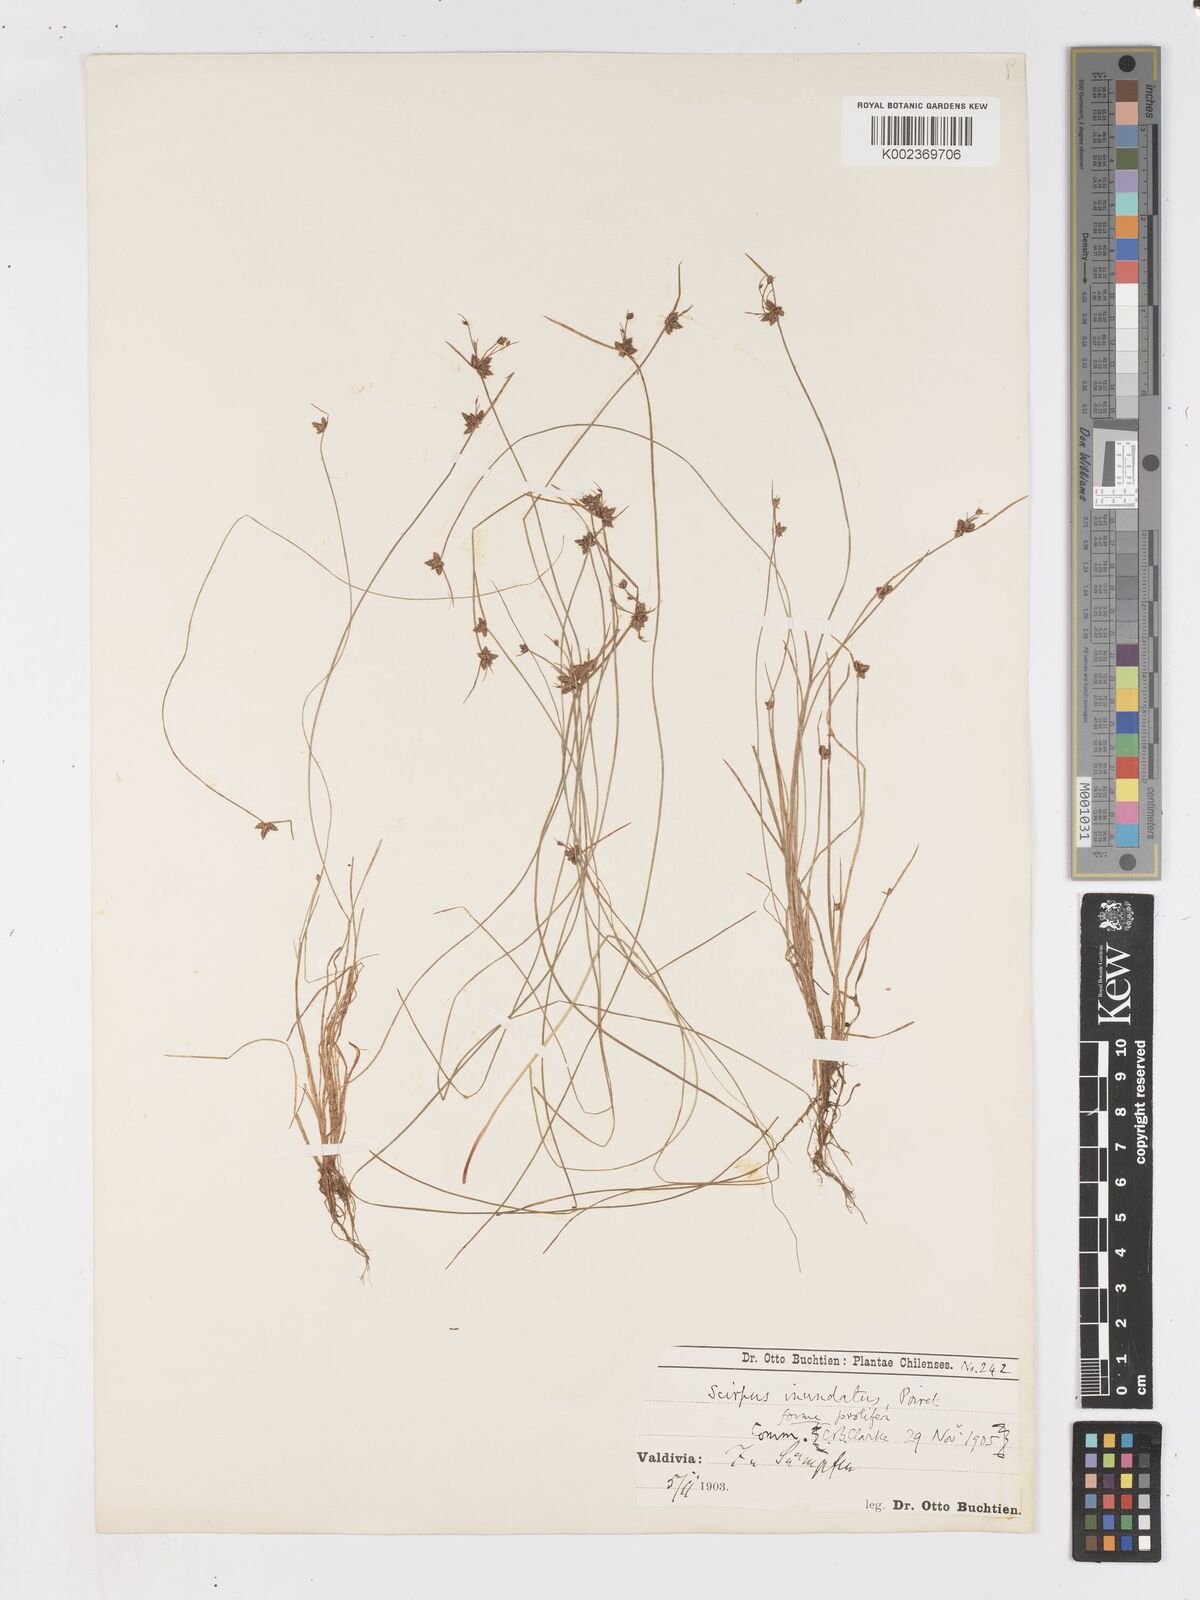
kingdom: Plantae
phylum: Tracheophyta
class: Liliopsida
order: Poales
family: Cyperaceae
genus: Isolepis
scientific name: Isolepis inundata
